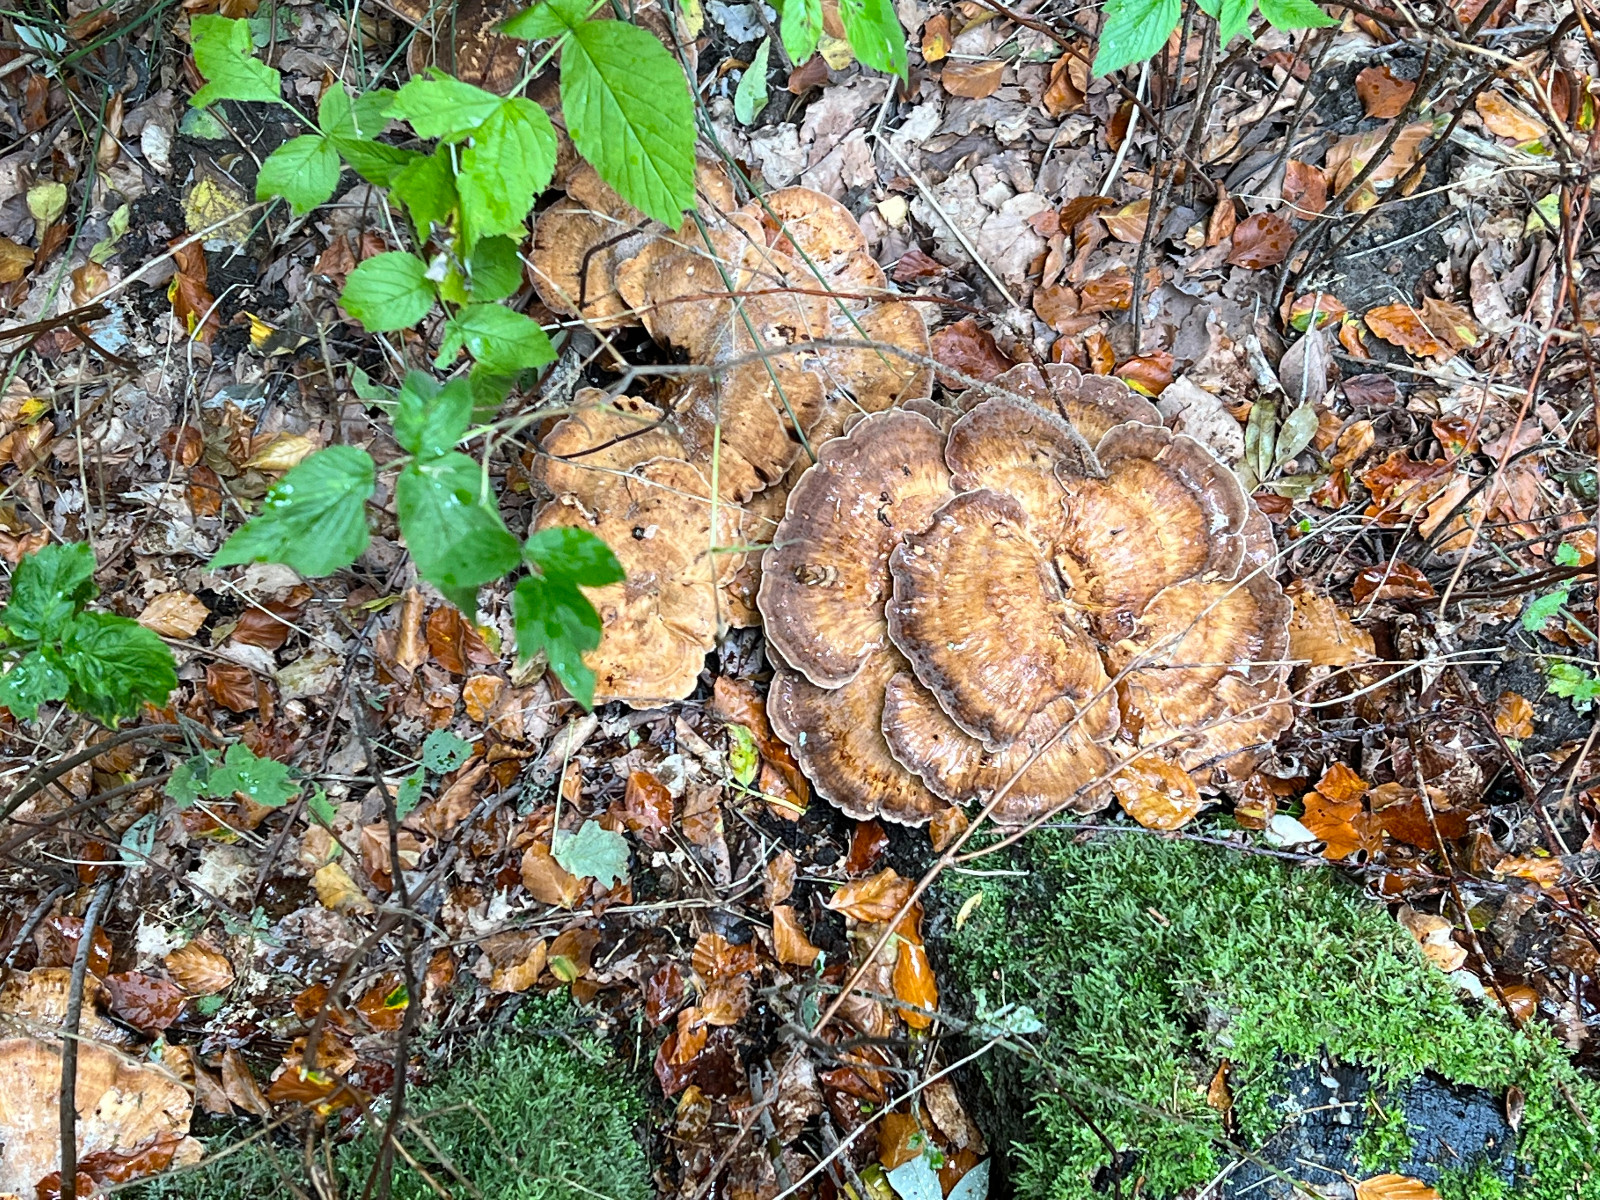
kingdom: Fungi
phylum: Basidiomycota
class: Agaricomycetes
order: Polyporales
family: Meripilaceae
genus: Meripilus
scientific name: Meripilus giganteus
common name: kæmpeporesvamp
